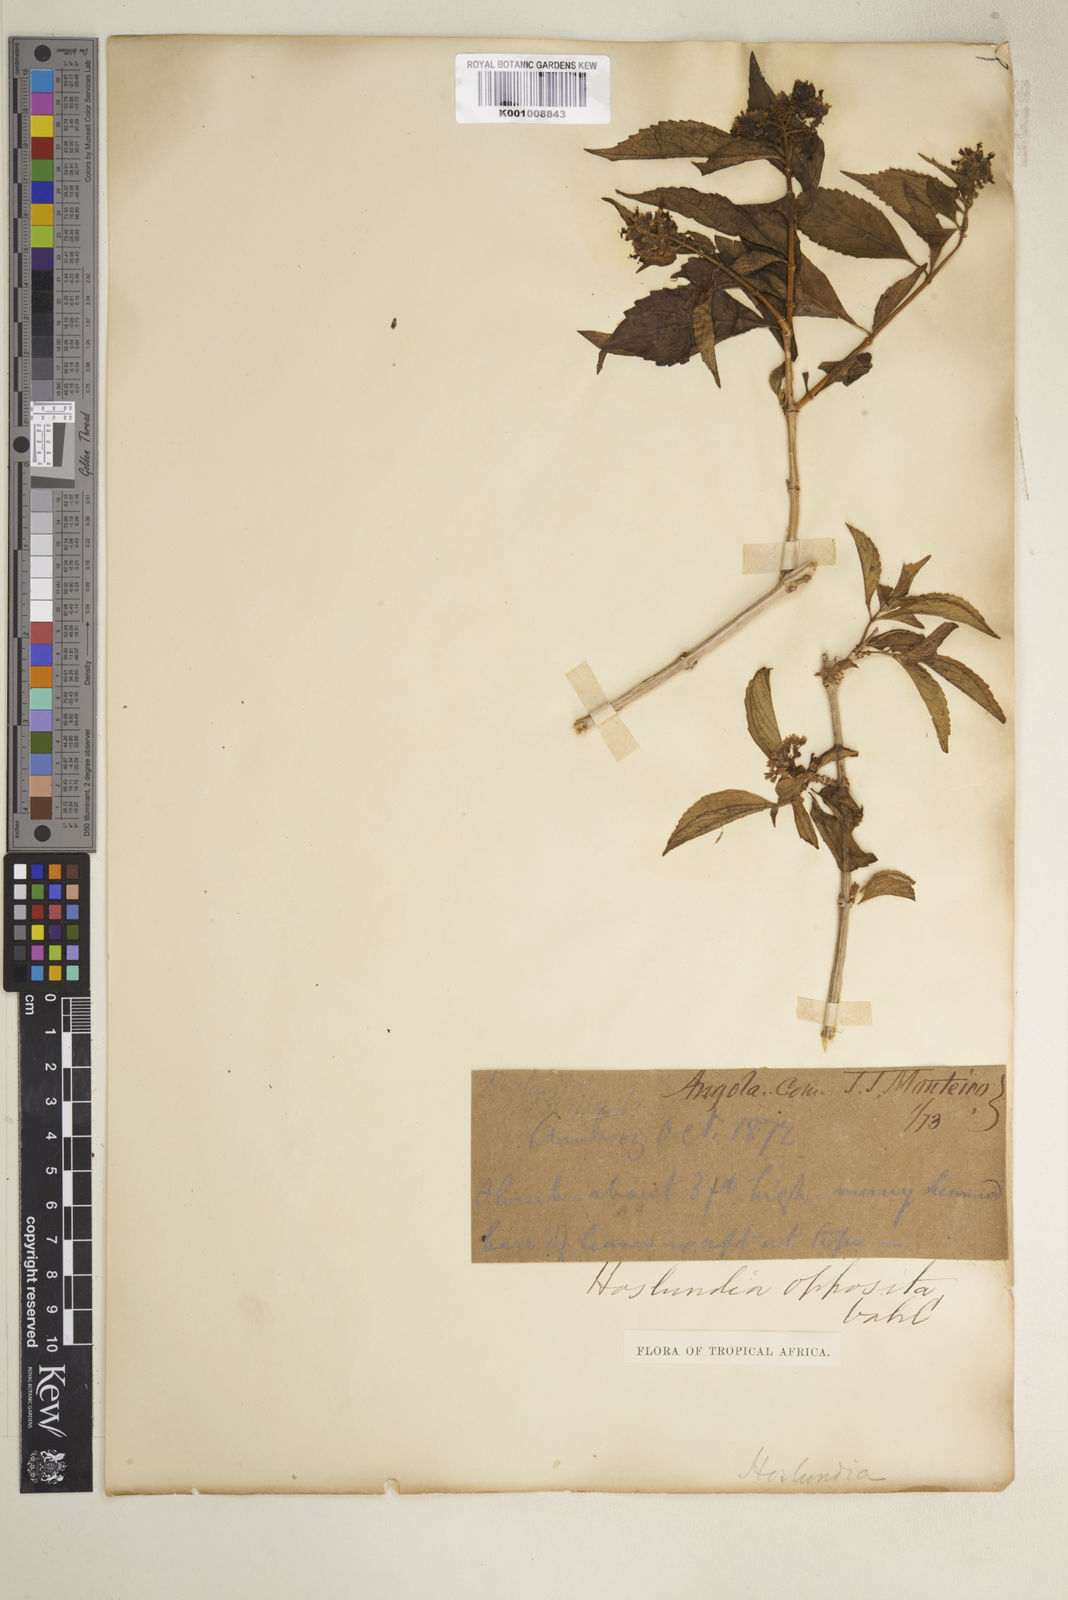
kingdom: Plantae
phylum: Tracheophyta
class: Magnoliopsida
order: Lamiales
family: Lamiaceae
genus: Hoslundia
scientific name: Hoslundia opposita
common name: Kamyuye
